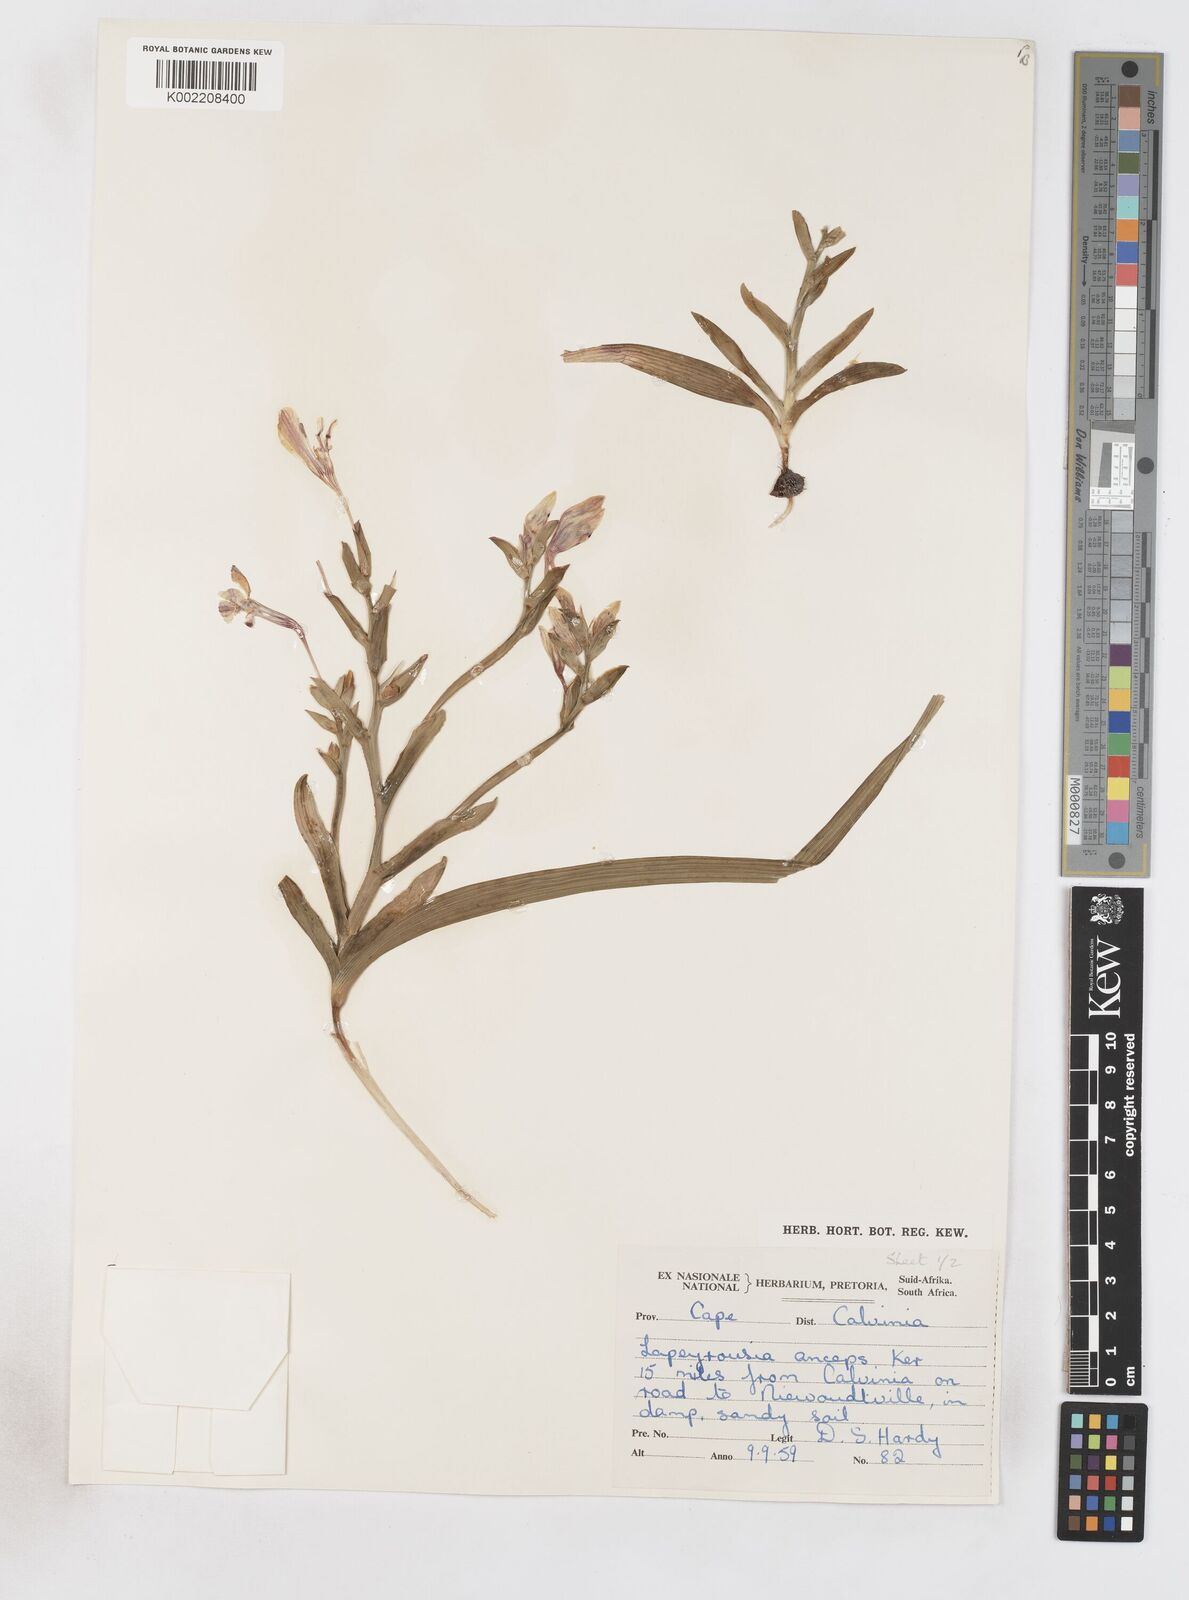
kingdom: Plantae
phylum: Tracheophyta
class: Liliopsida
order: Asparagales
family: Iridaceae
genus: Lapeirousia
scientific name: Lapeirousia fabricii
